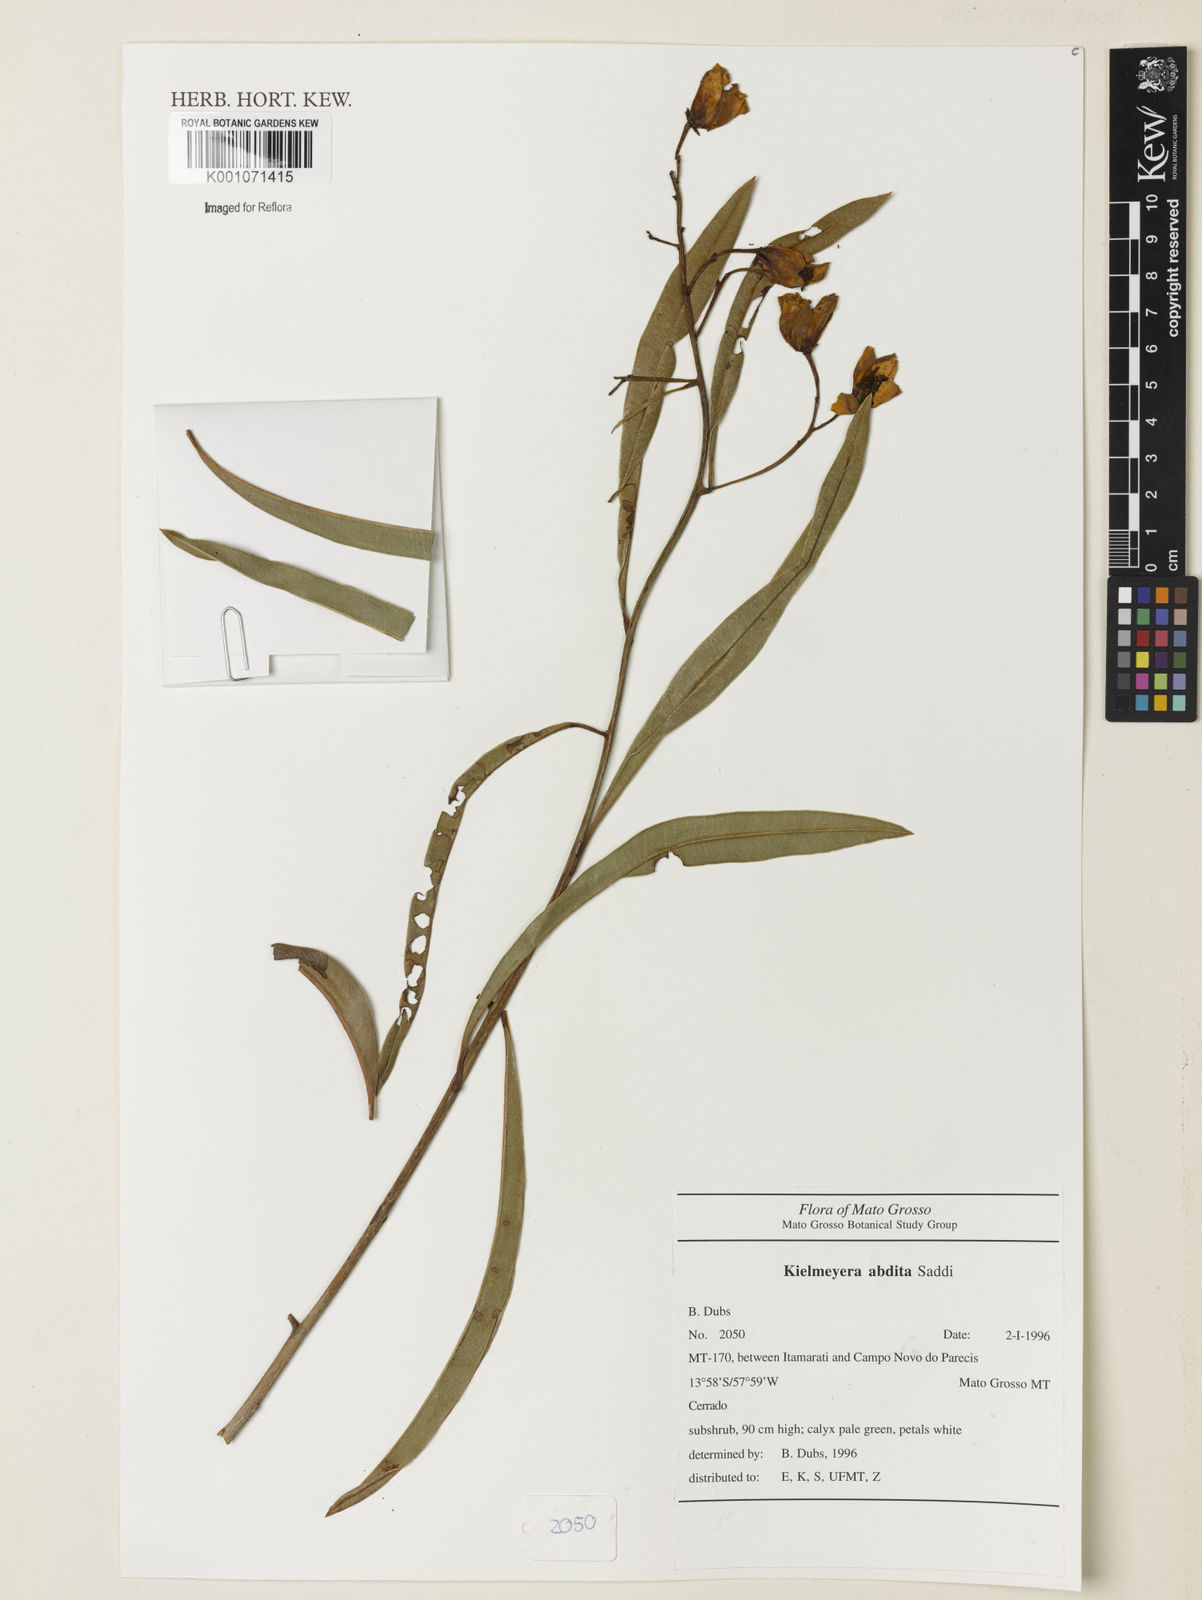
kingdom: Plantae
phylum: Tracheophyta
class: Magnoliopsida
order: Malpighiales
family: Calophyllaceae
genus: Kielmeyera
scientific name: Kielmeyera abdita
